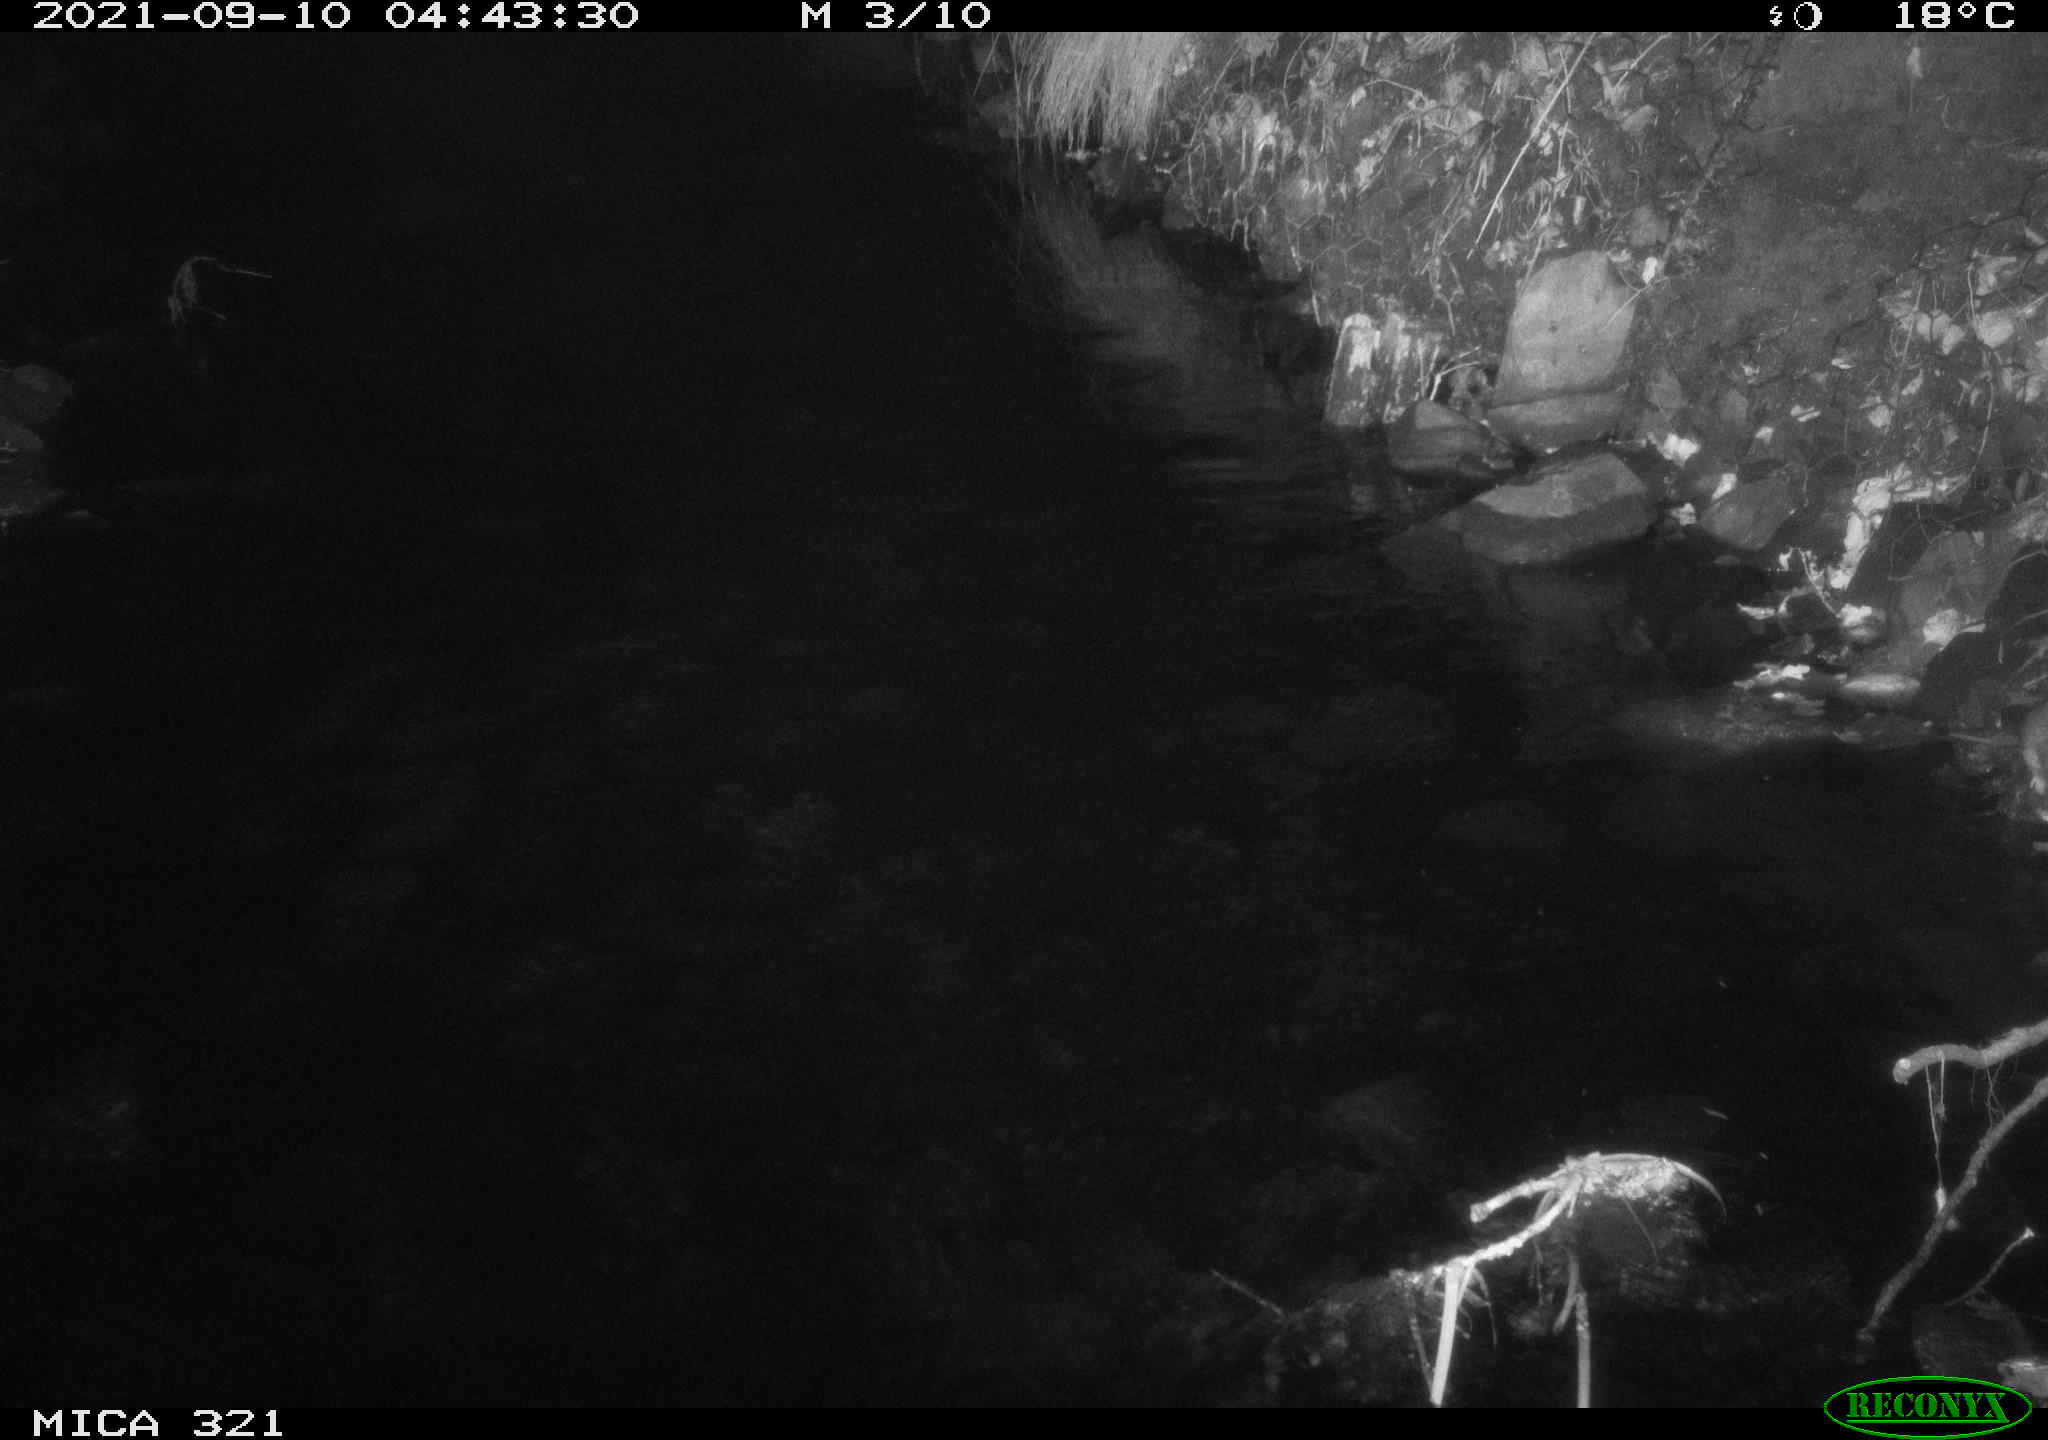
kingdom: Animalia
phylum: Chordata
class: Mammalia
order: Rodentia
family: Muridae
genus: Rattus
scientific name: Rattus norvegicus
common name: Brown rat
